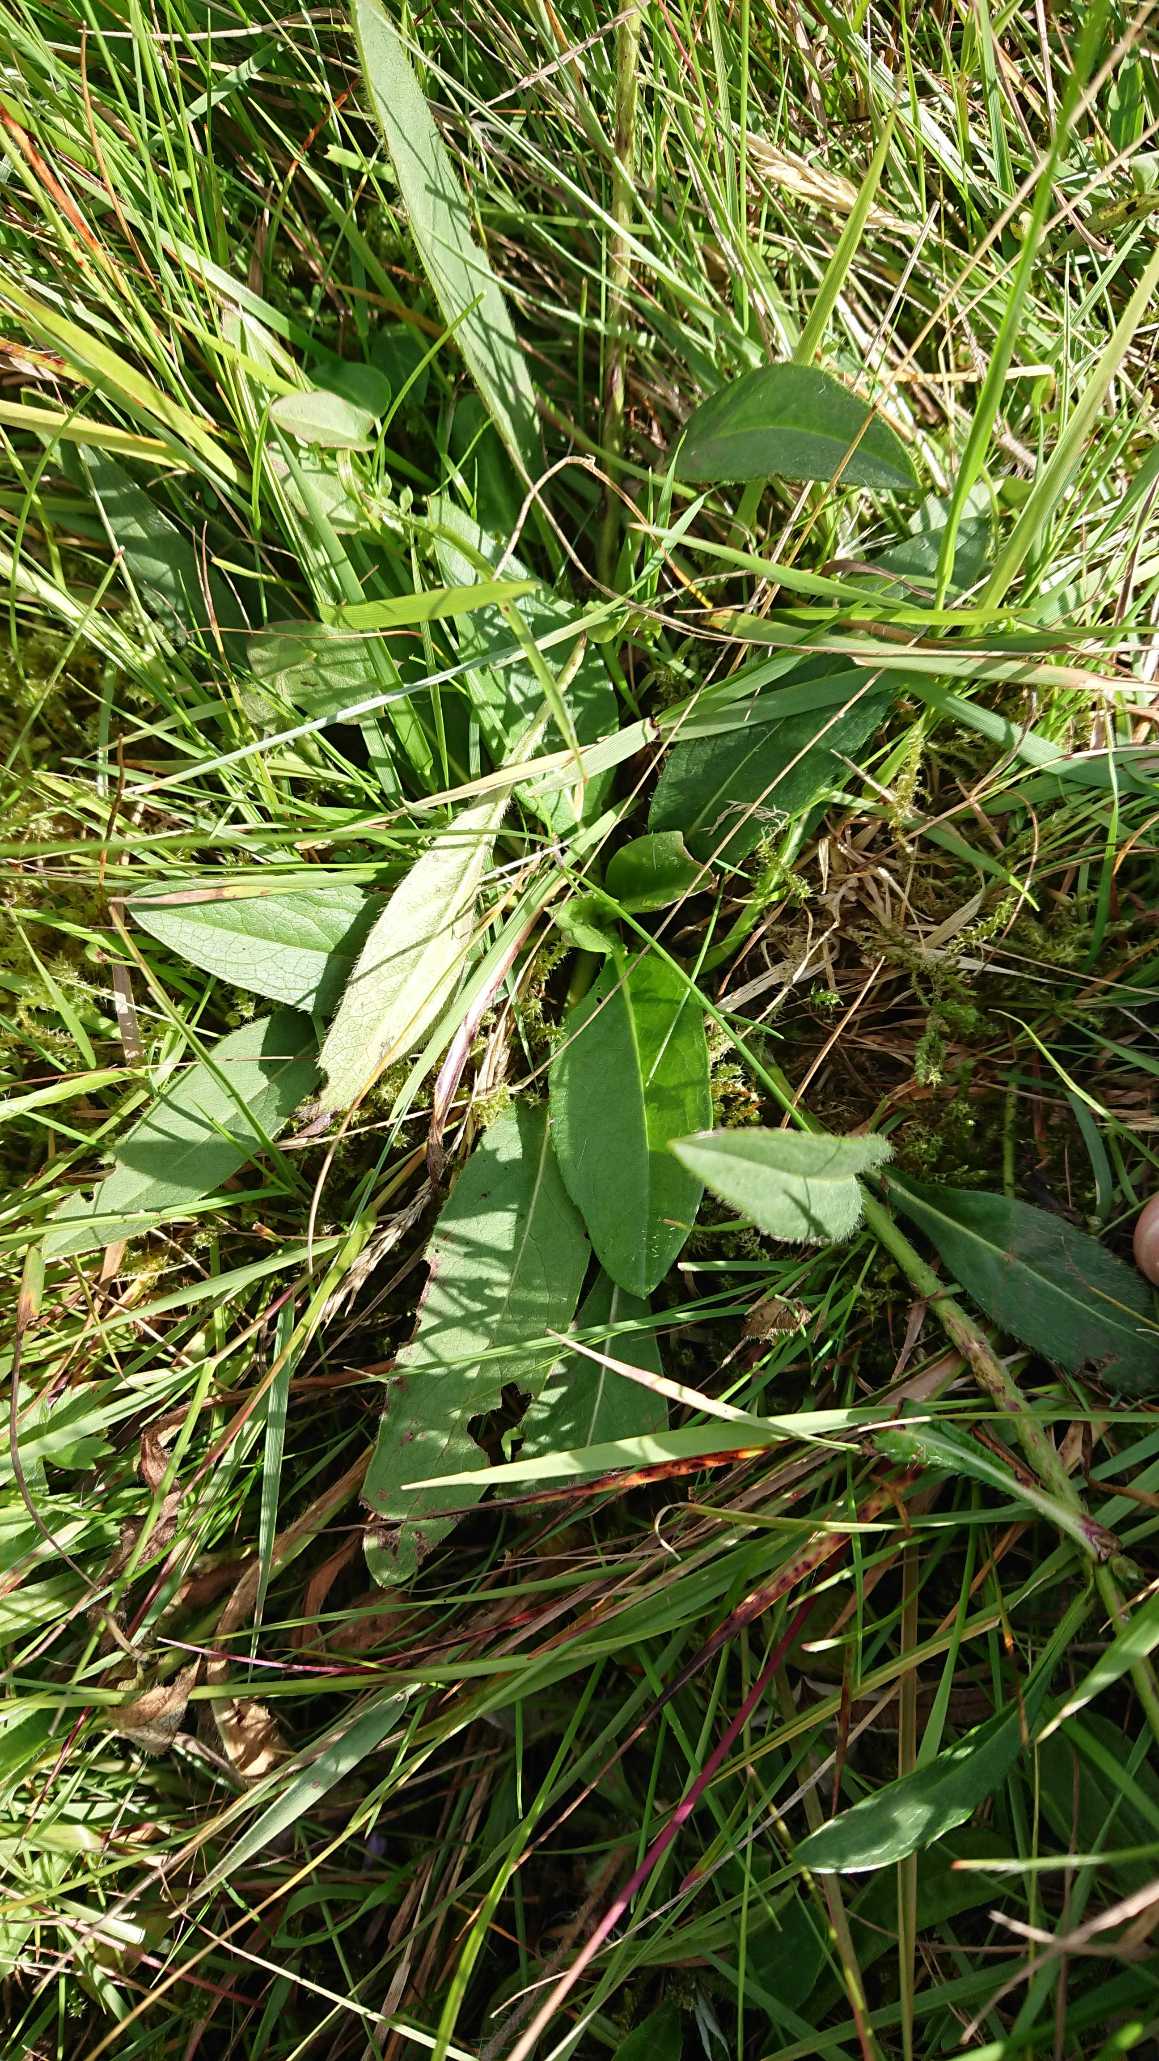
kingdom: Plantae
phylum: Tracheophyta
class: Magnoliopsida
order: Dipsacales
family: Caprifoliaceae
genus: Succisa
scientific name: Succisa pratensis
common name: Djævelsbid
